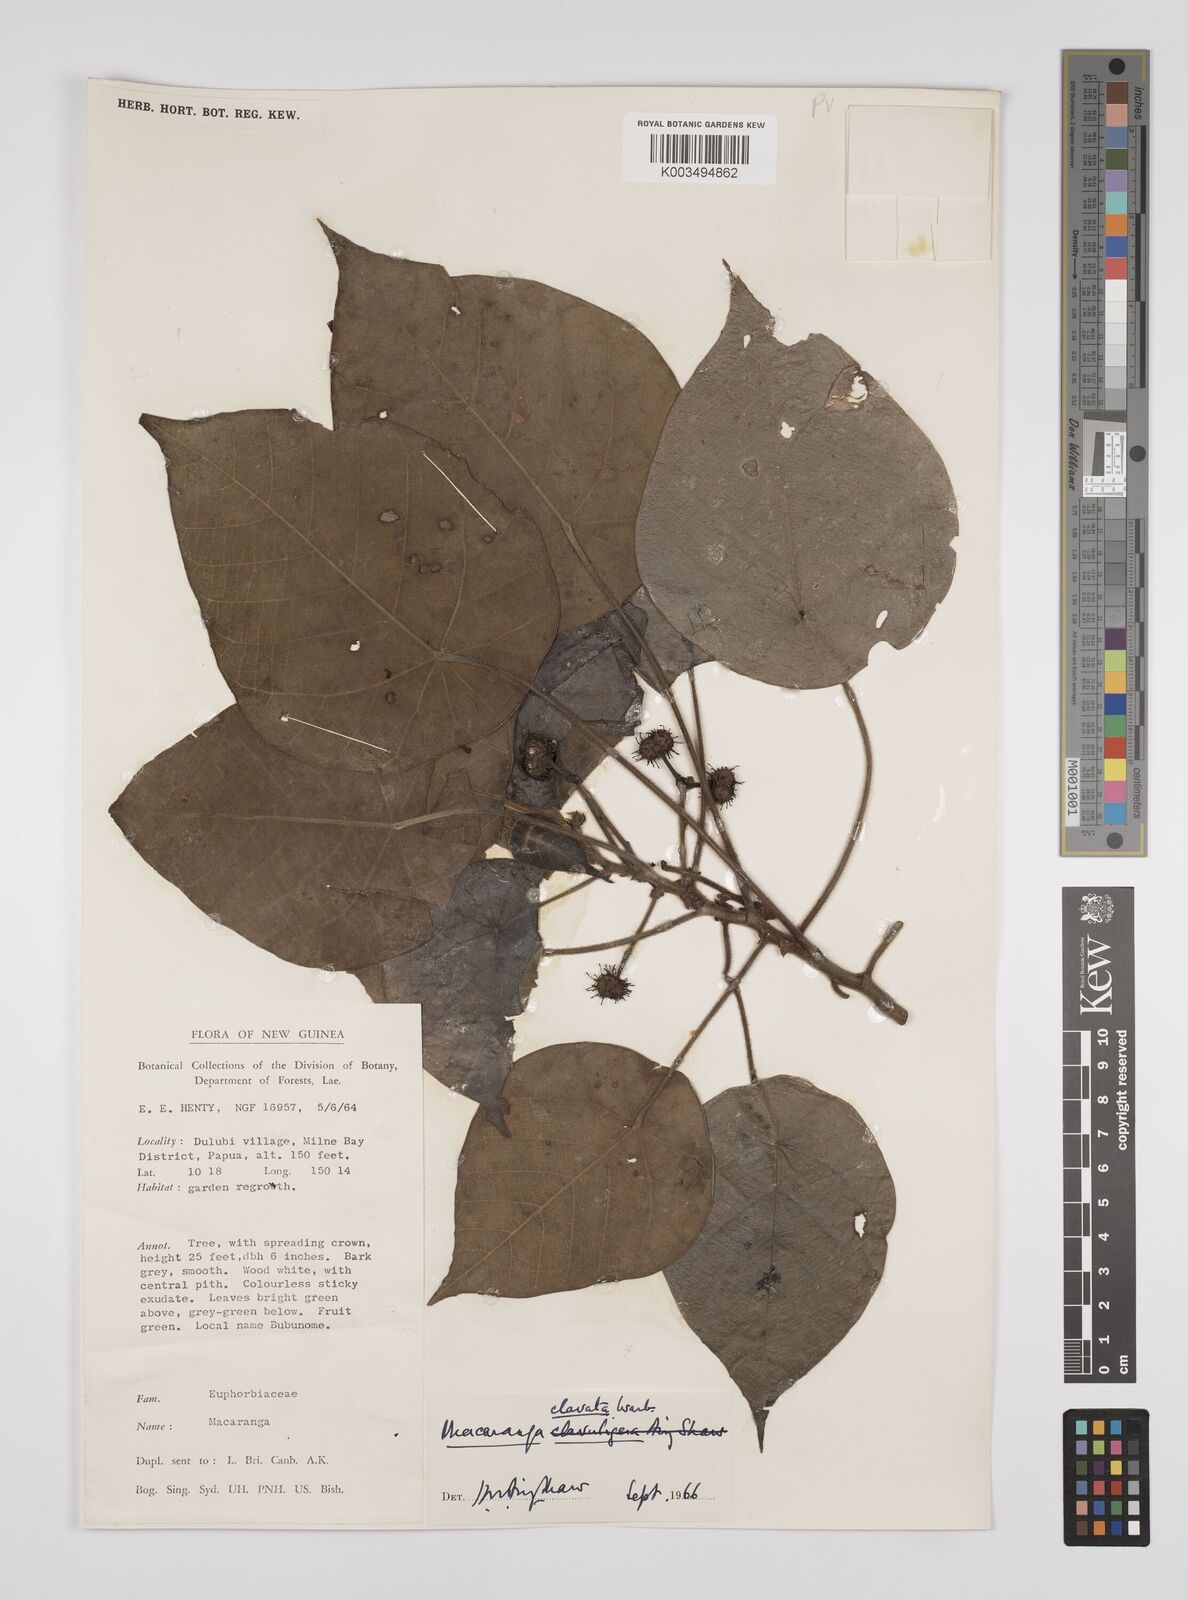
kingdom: Plantae
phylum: Tracheophyta
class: Magnoliopsida
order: Malpighiales
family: Euphorbiaceae
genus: Macaranga
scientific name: Macaranga clavata
